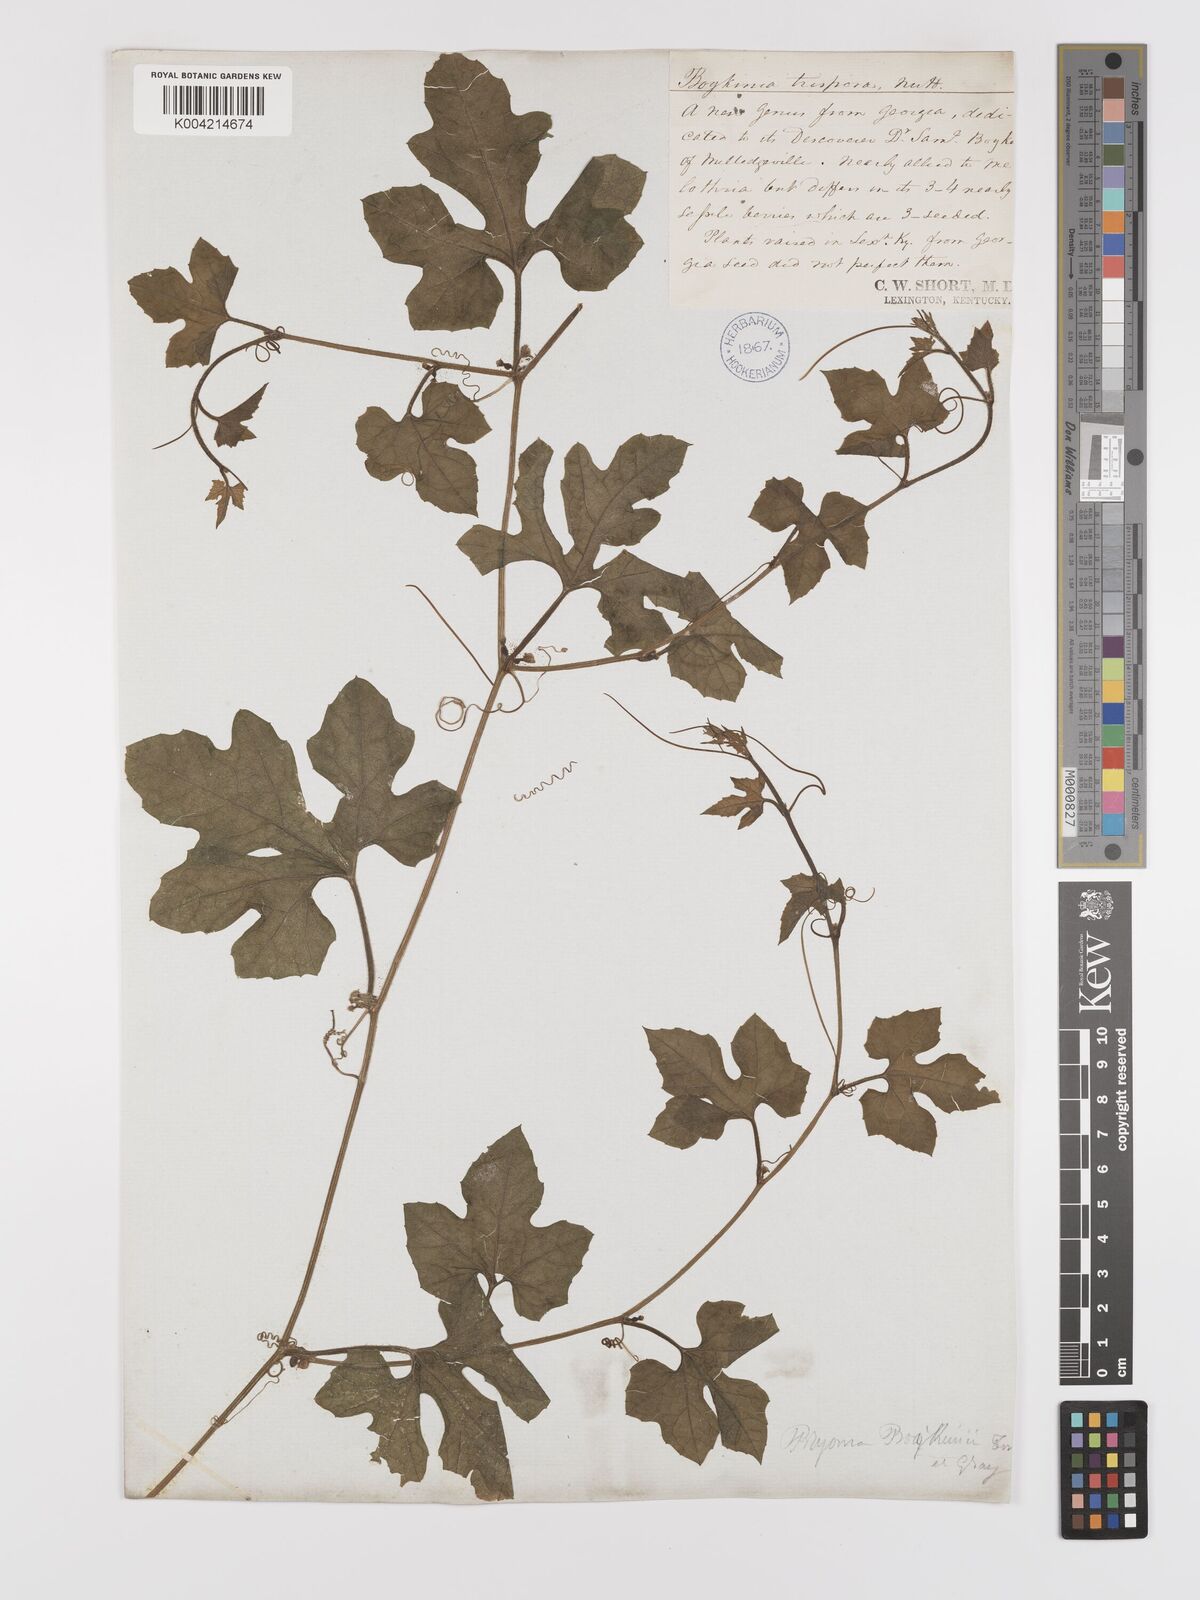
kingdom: Plantae
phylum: Tracheophyta
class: Magnoliopsida
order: Cucurbitales
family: Cucurbitaceae
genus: Cayaponia
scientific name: Cayaponia quinqueloba
